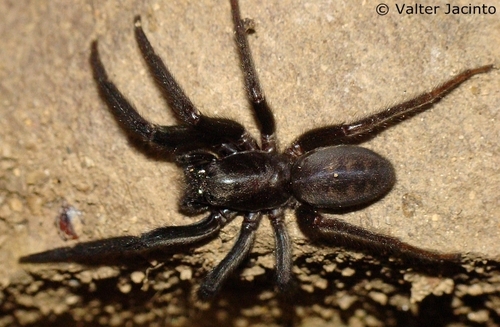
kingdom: Animalia
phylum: Arthropoda
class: Arachnida
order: Araneae
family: Segestriidae
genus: Segestria
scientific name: Segestria florentina
